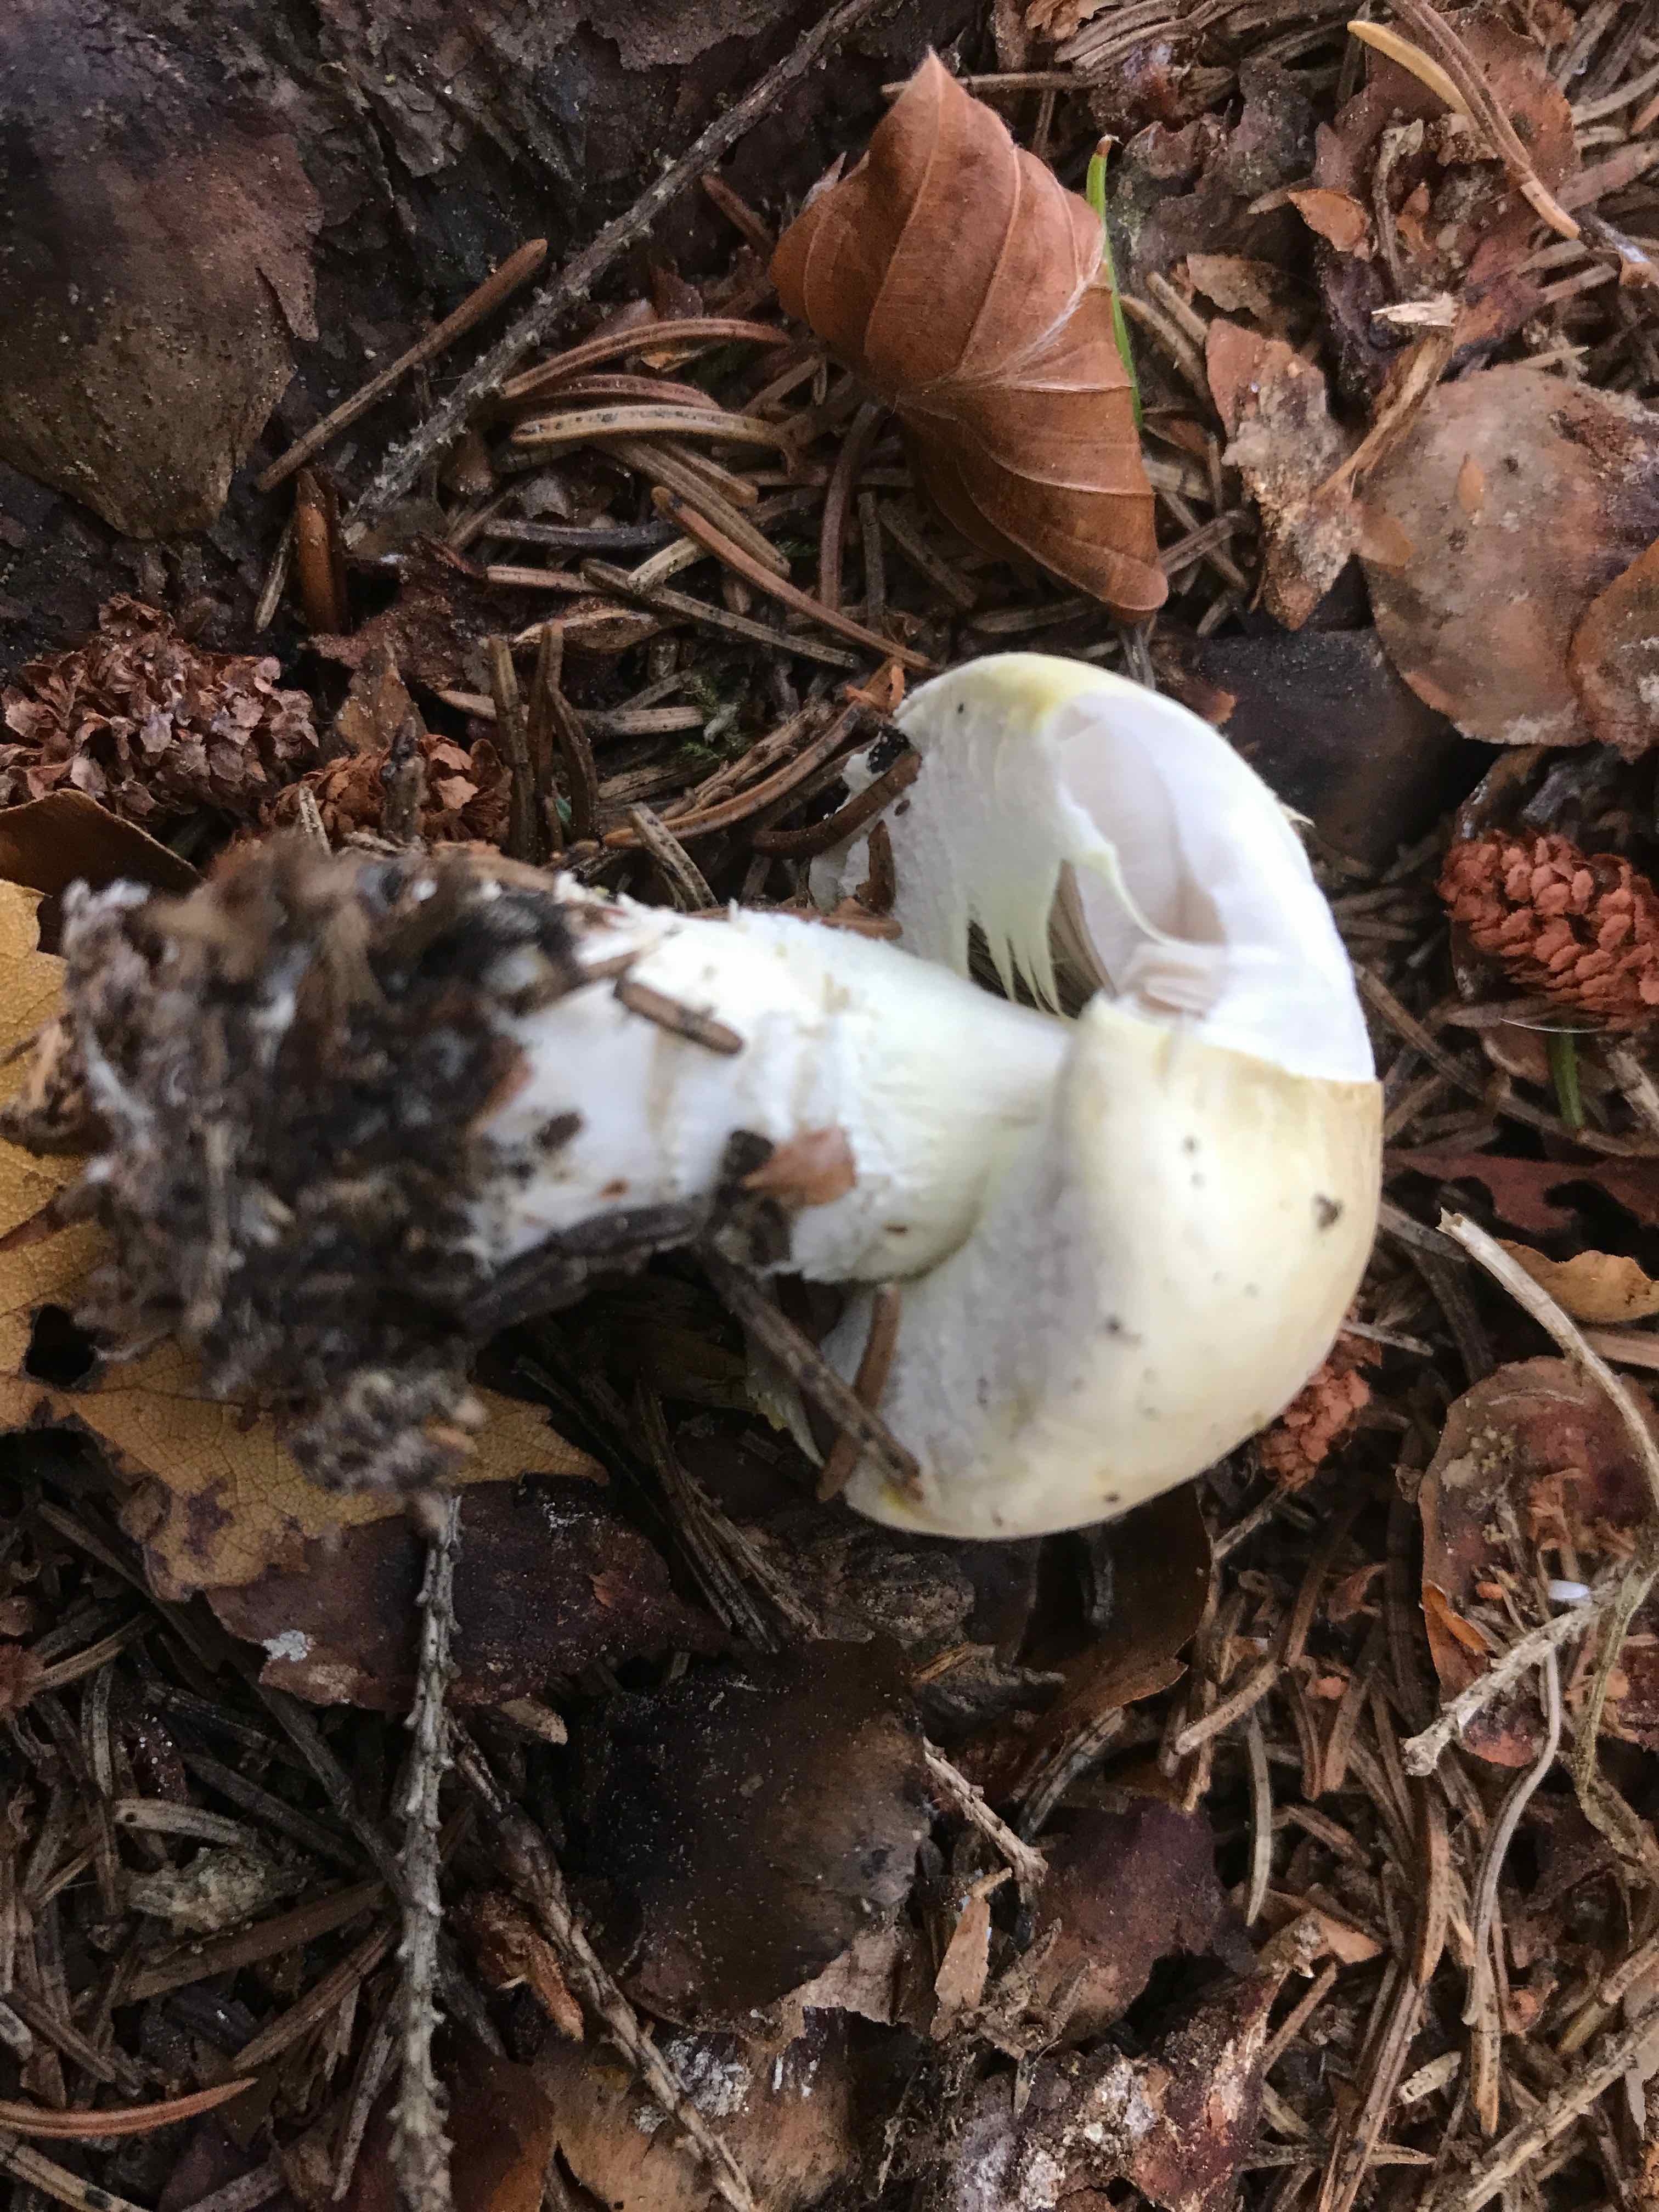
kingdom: Fungi
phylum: Basidiomycota
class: Agaricomycetes
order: Agaricales
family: Agaricaceae
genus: Agaricus
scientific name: Agaricus sylvicola
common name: gulhvid champignon
